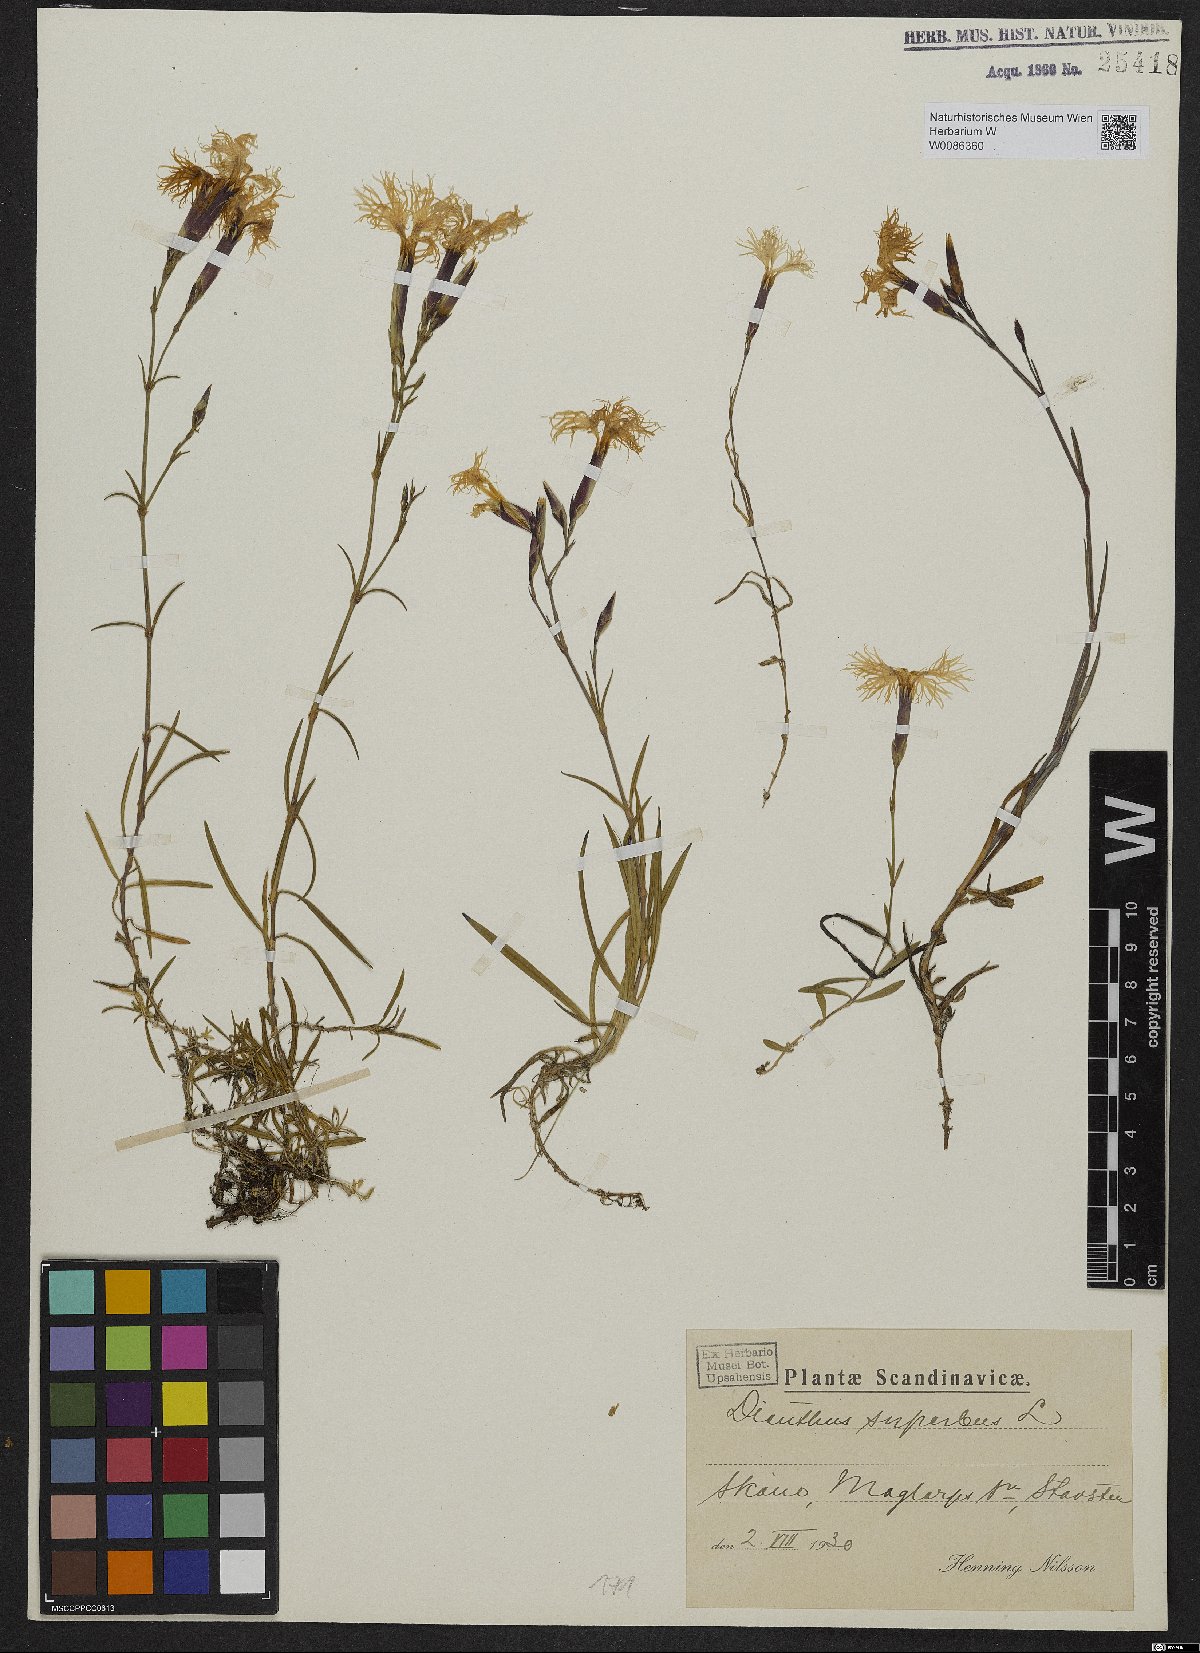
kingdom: Plantae
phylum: Tracheophyta
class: Magnoliopsida
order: Caryophyllales
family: Caryophyllaceae
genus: Dianthus
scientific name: Dianthus superbus
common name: Fringed pink
